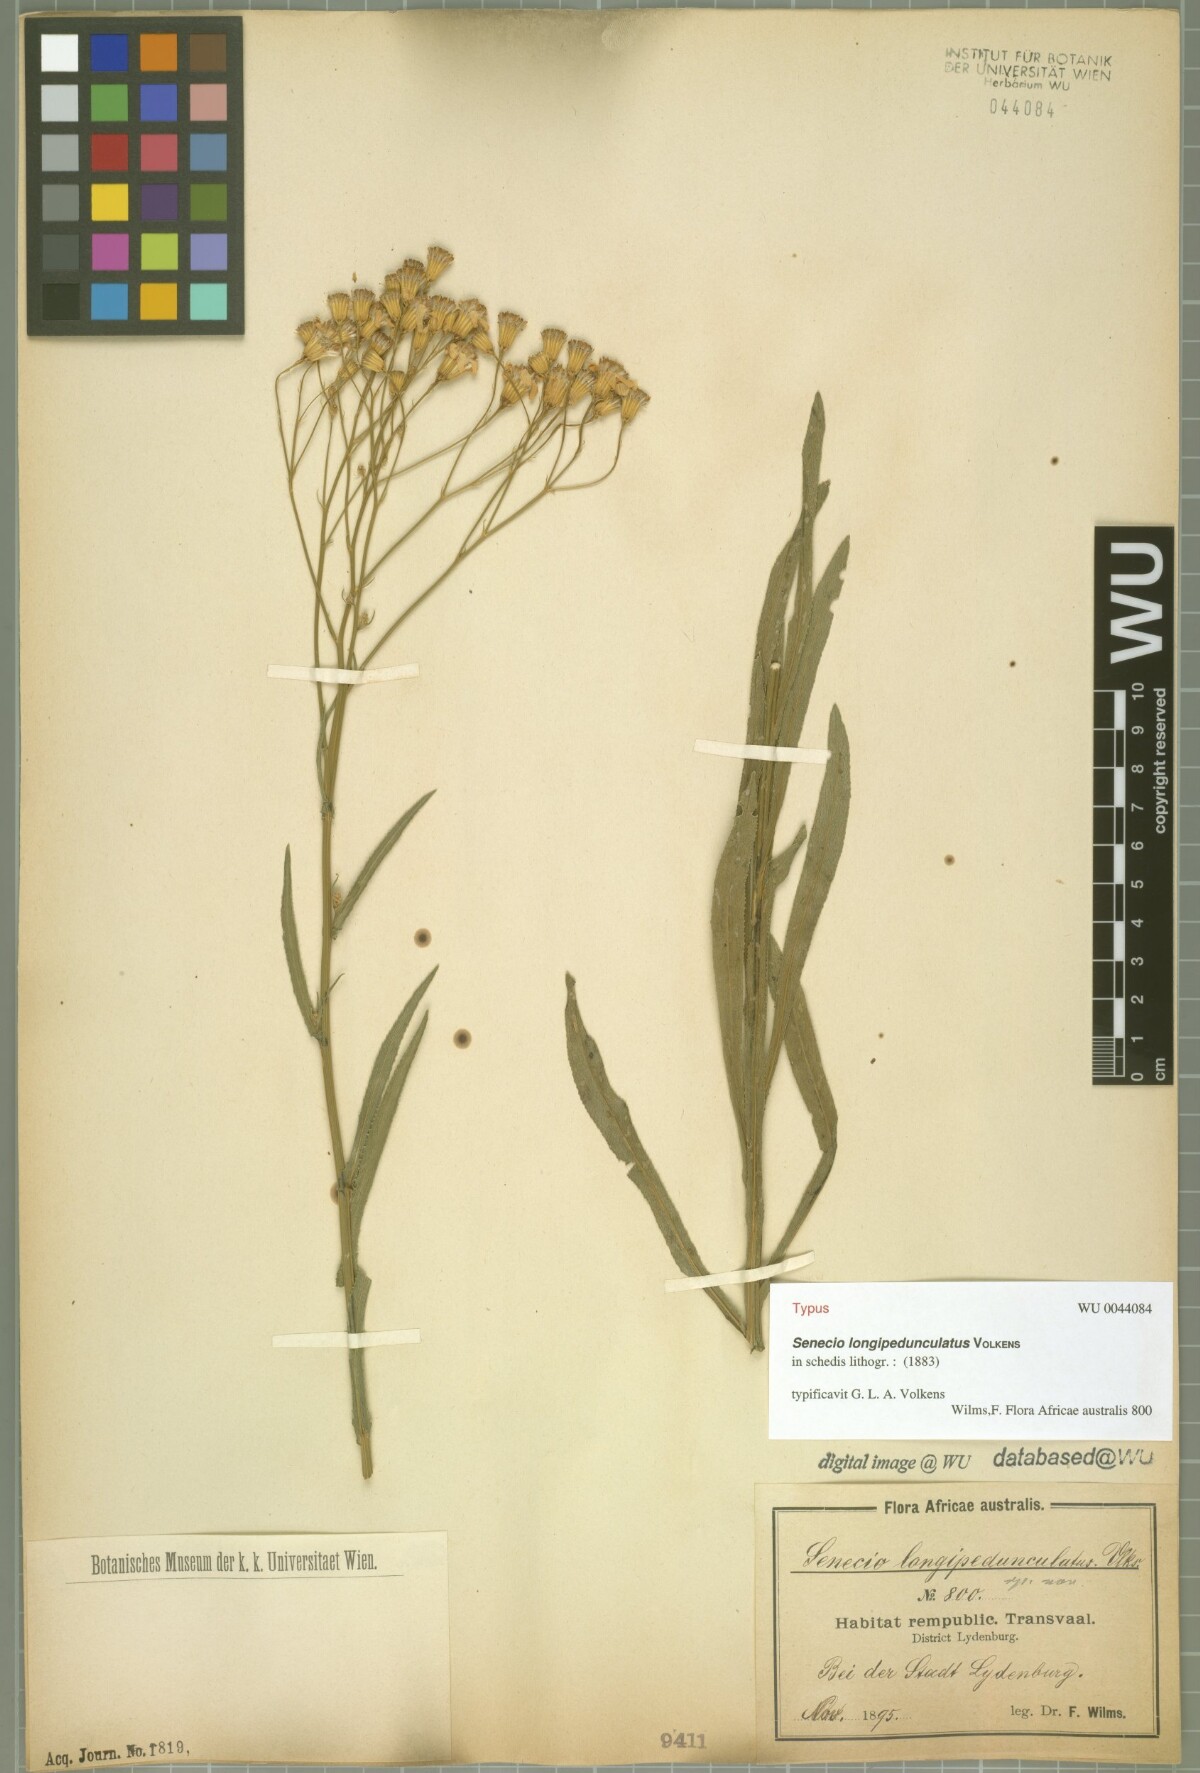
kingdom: Plantae
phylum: Tracheophyta
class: Magnoliopsida
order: Asterales
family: Asteraceae
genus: Senecio
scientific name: Senecio serra
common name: Tall ragwort
